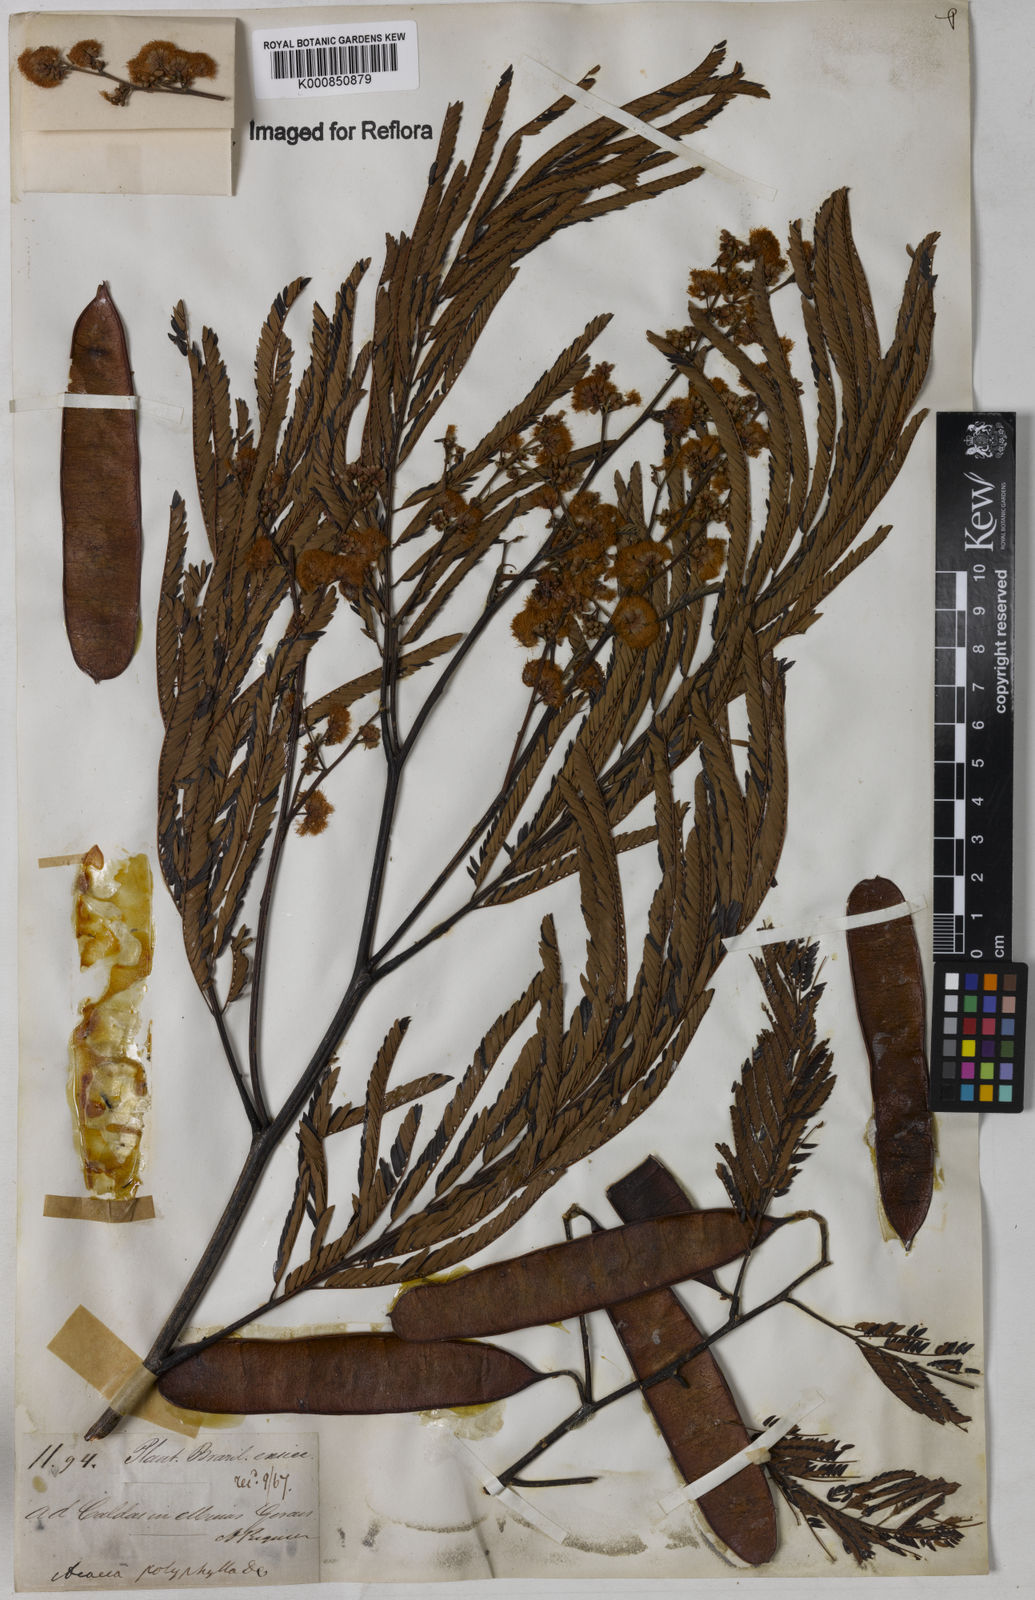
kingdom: Plantae
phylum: Tracheophyta
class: Magnoliopsida
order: Fabales
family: Fabaceae
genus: Senegalia
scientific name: Senegalia polyphylla
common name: White-tamarind
